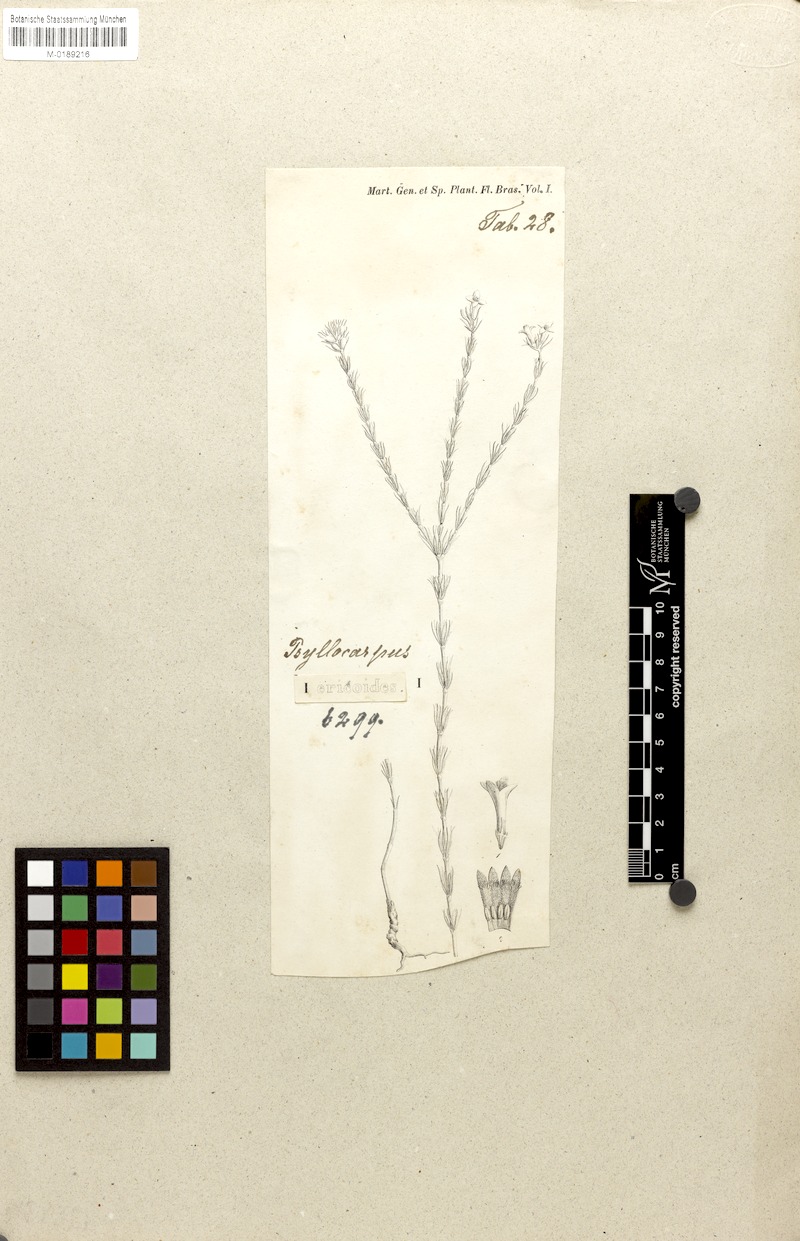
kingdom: Plantae
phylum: Tracheophyta
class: Magnoliopsida
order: Gentianales
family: Rubiaceae
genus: Psyllocarpus
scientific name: Psyllocarpus laricoides
